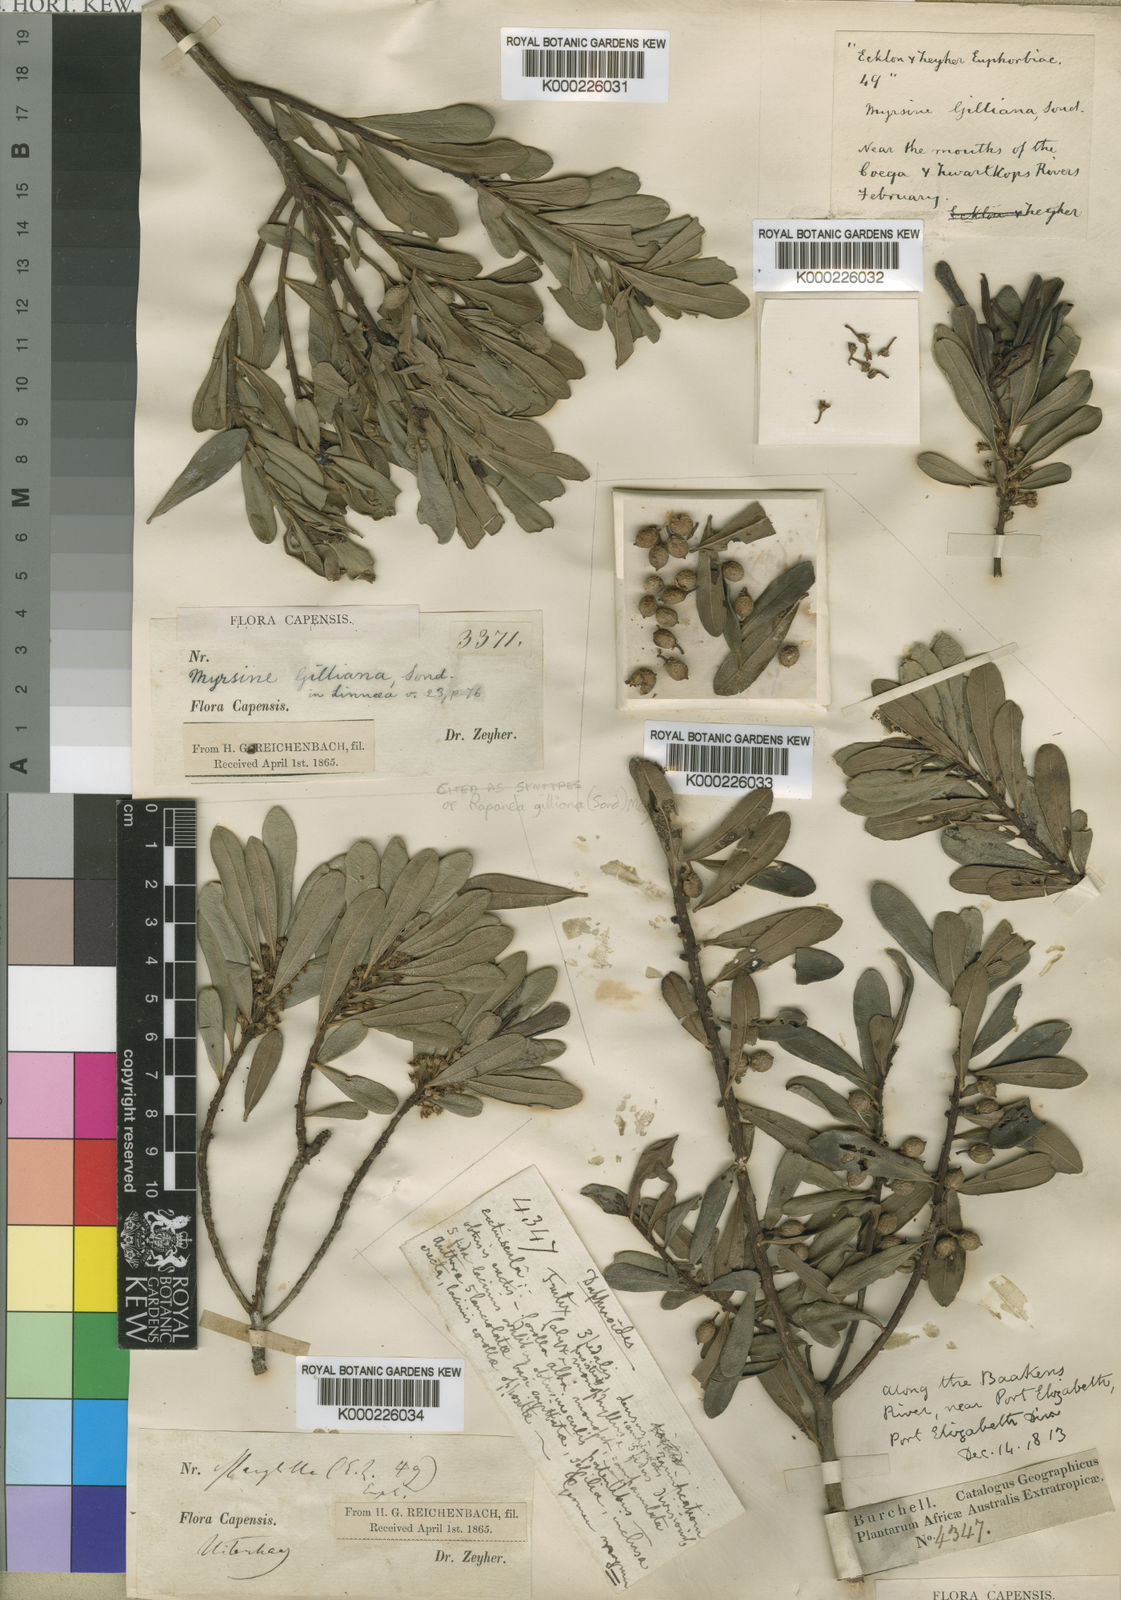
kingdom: Plantae
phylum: Tracheophyta
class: Magnoliopsida
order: Ericales
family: Primulaceae
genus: Myrsine
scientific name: Myrsine gilliana
